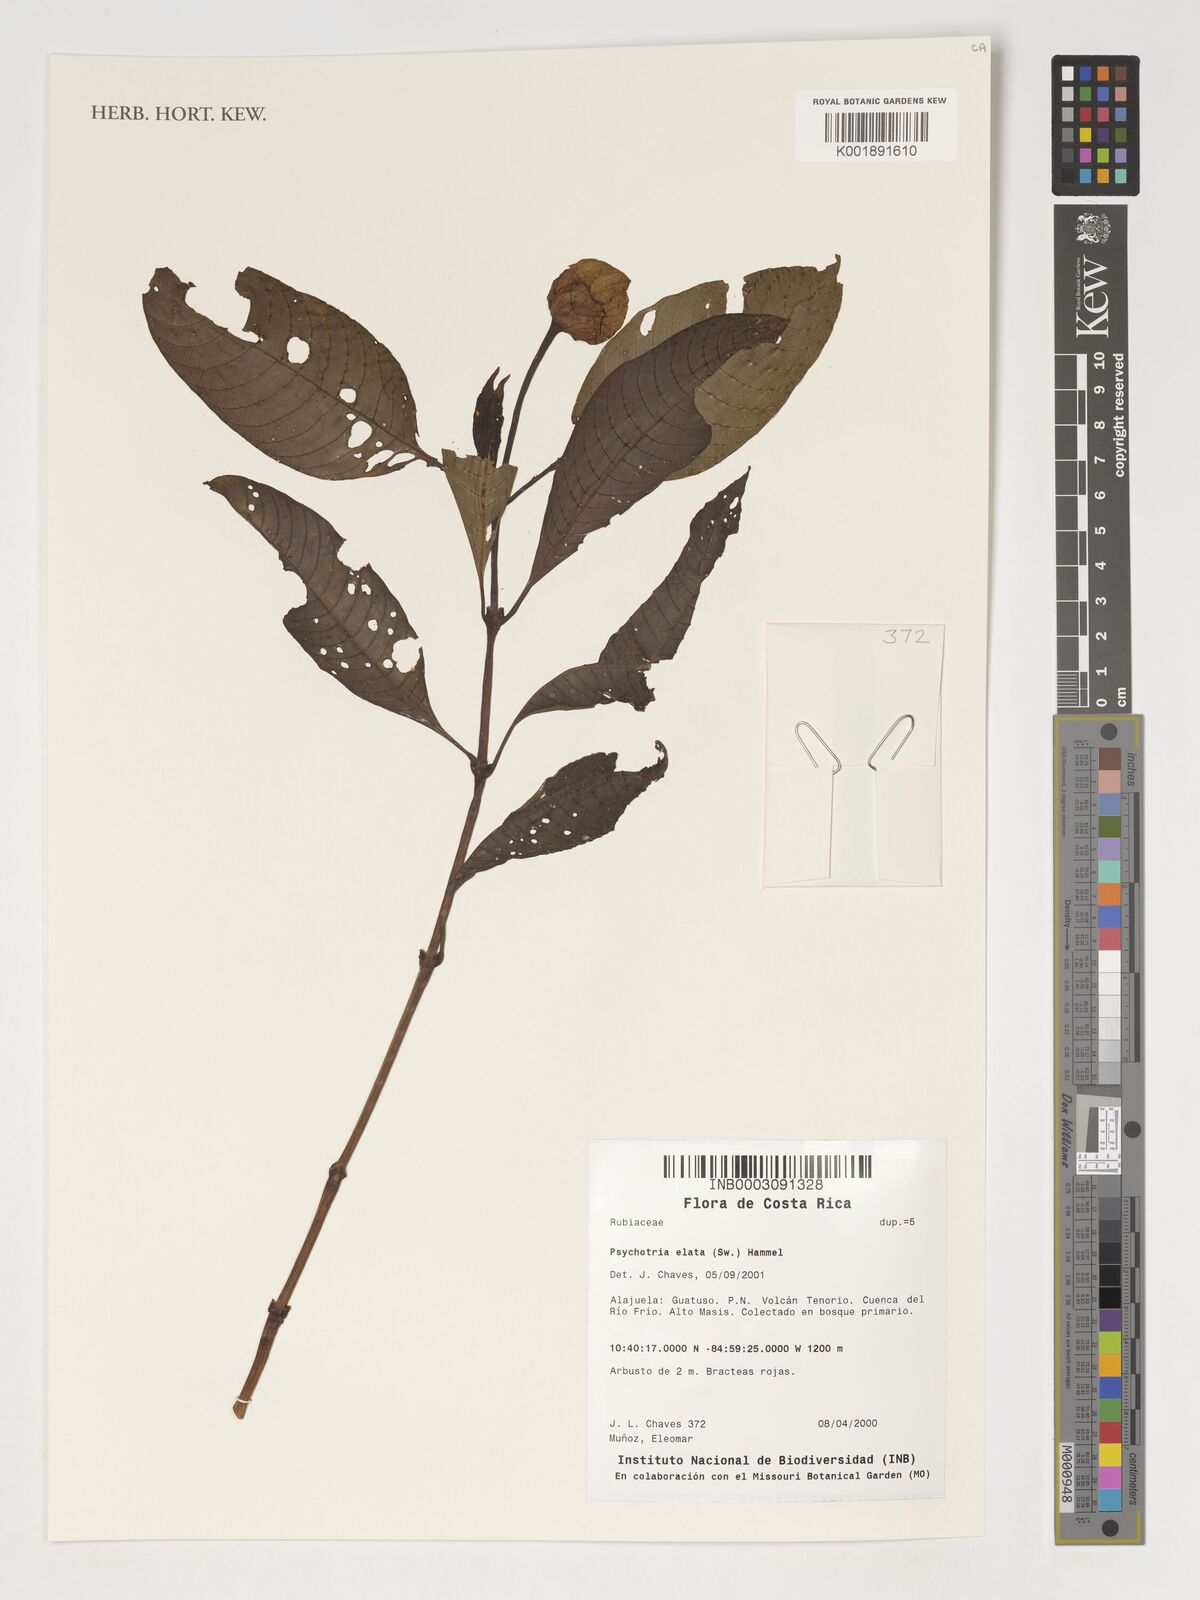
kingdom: Plantae
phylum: Tracheophyta
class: Magnoliopsida
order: Gentianales
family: Rubiaceae
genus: Palicourea
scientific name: Palicourea elata
